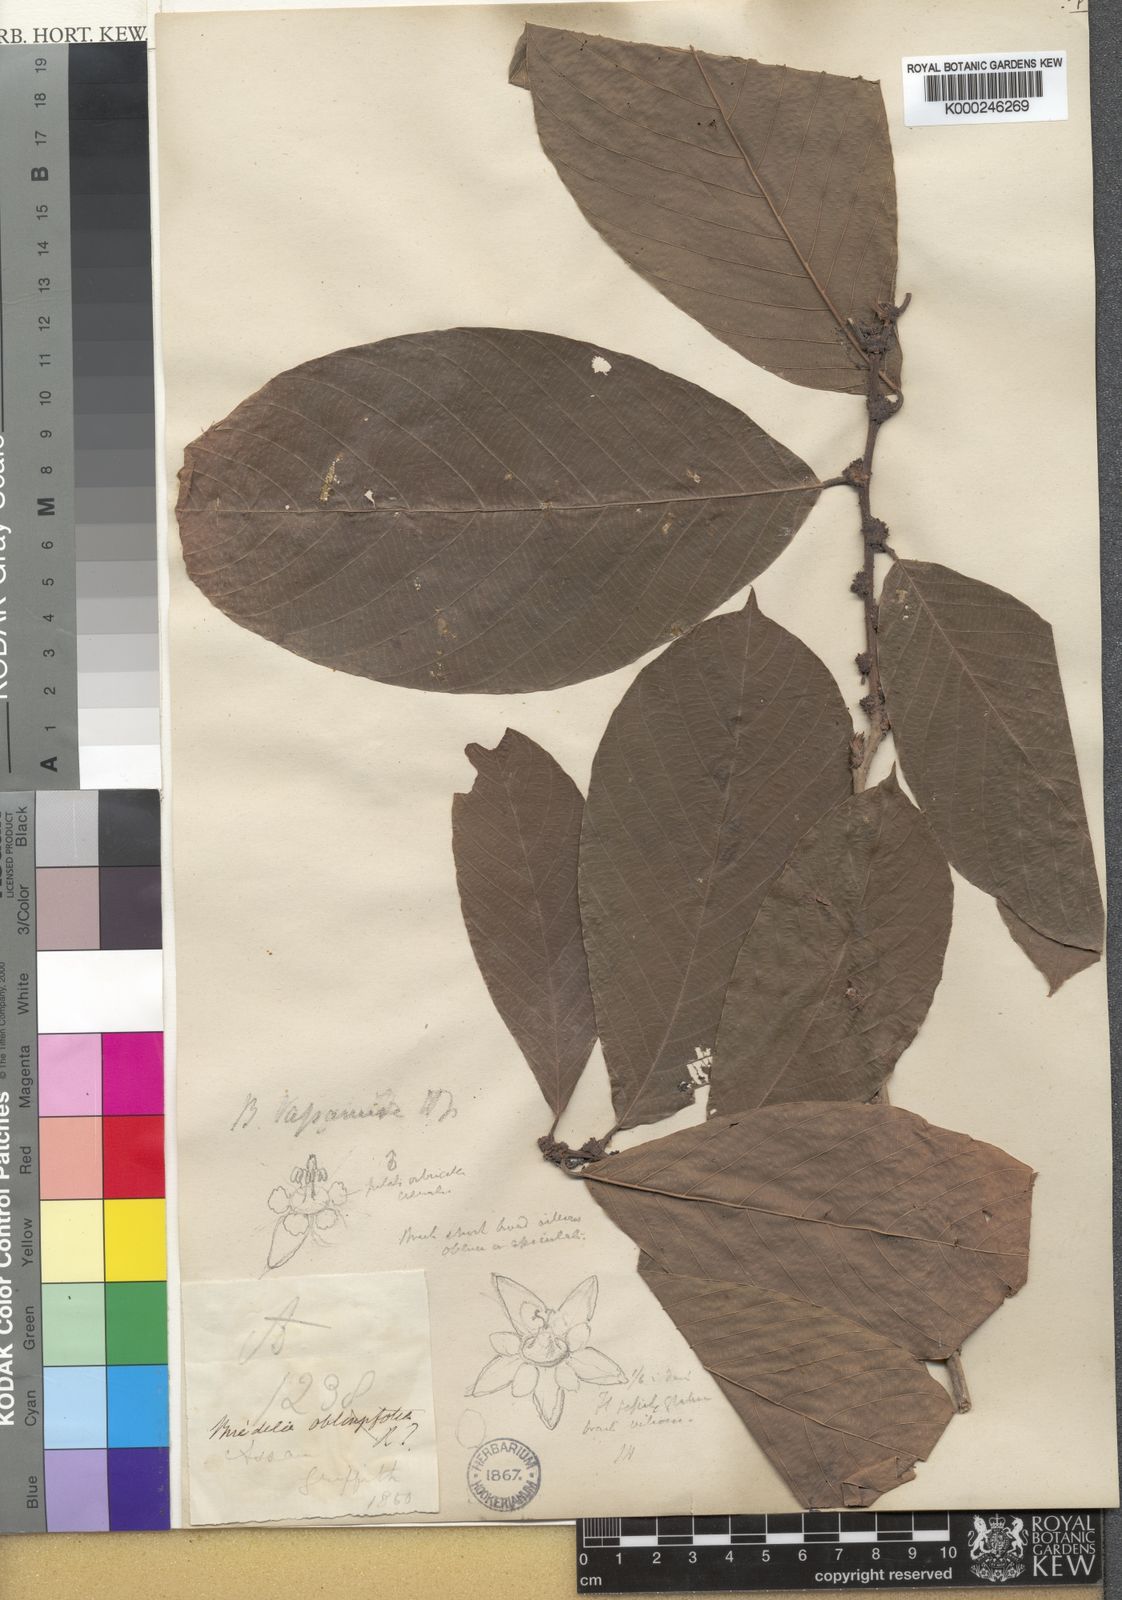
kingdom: Plantae
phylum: Tracheophyta
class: Magnoliopsida
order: Malpighiales
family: Phyllanthaceae
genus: Bridelia
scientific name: Bridelia assamica
